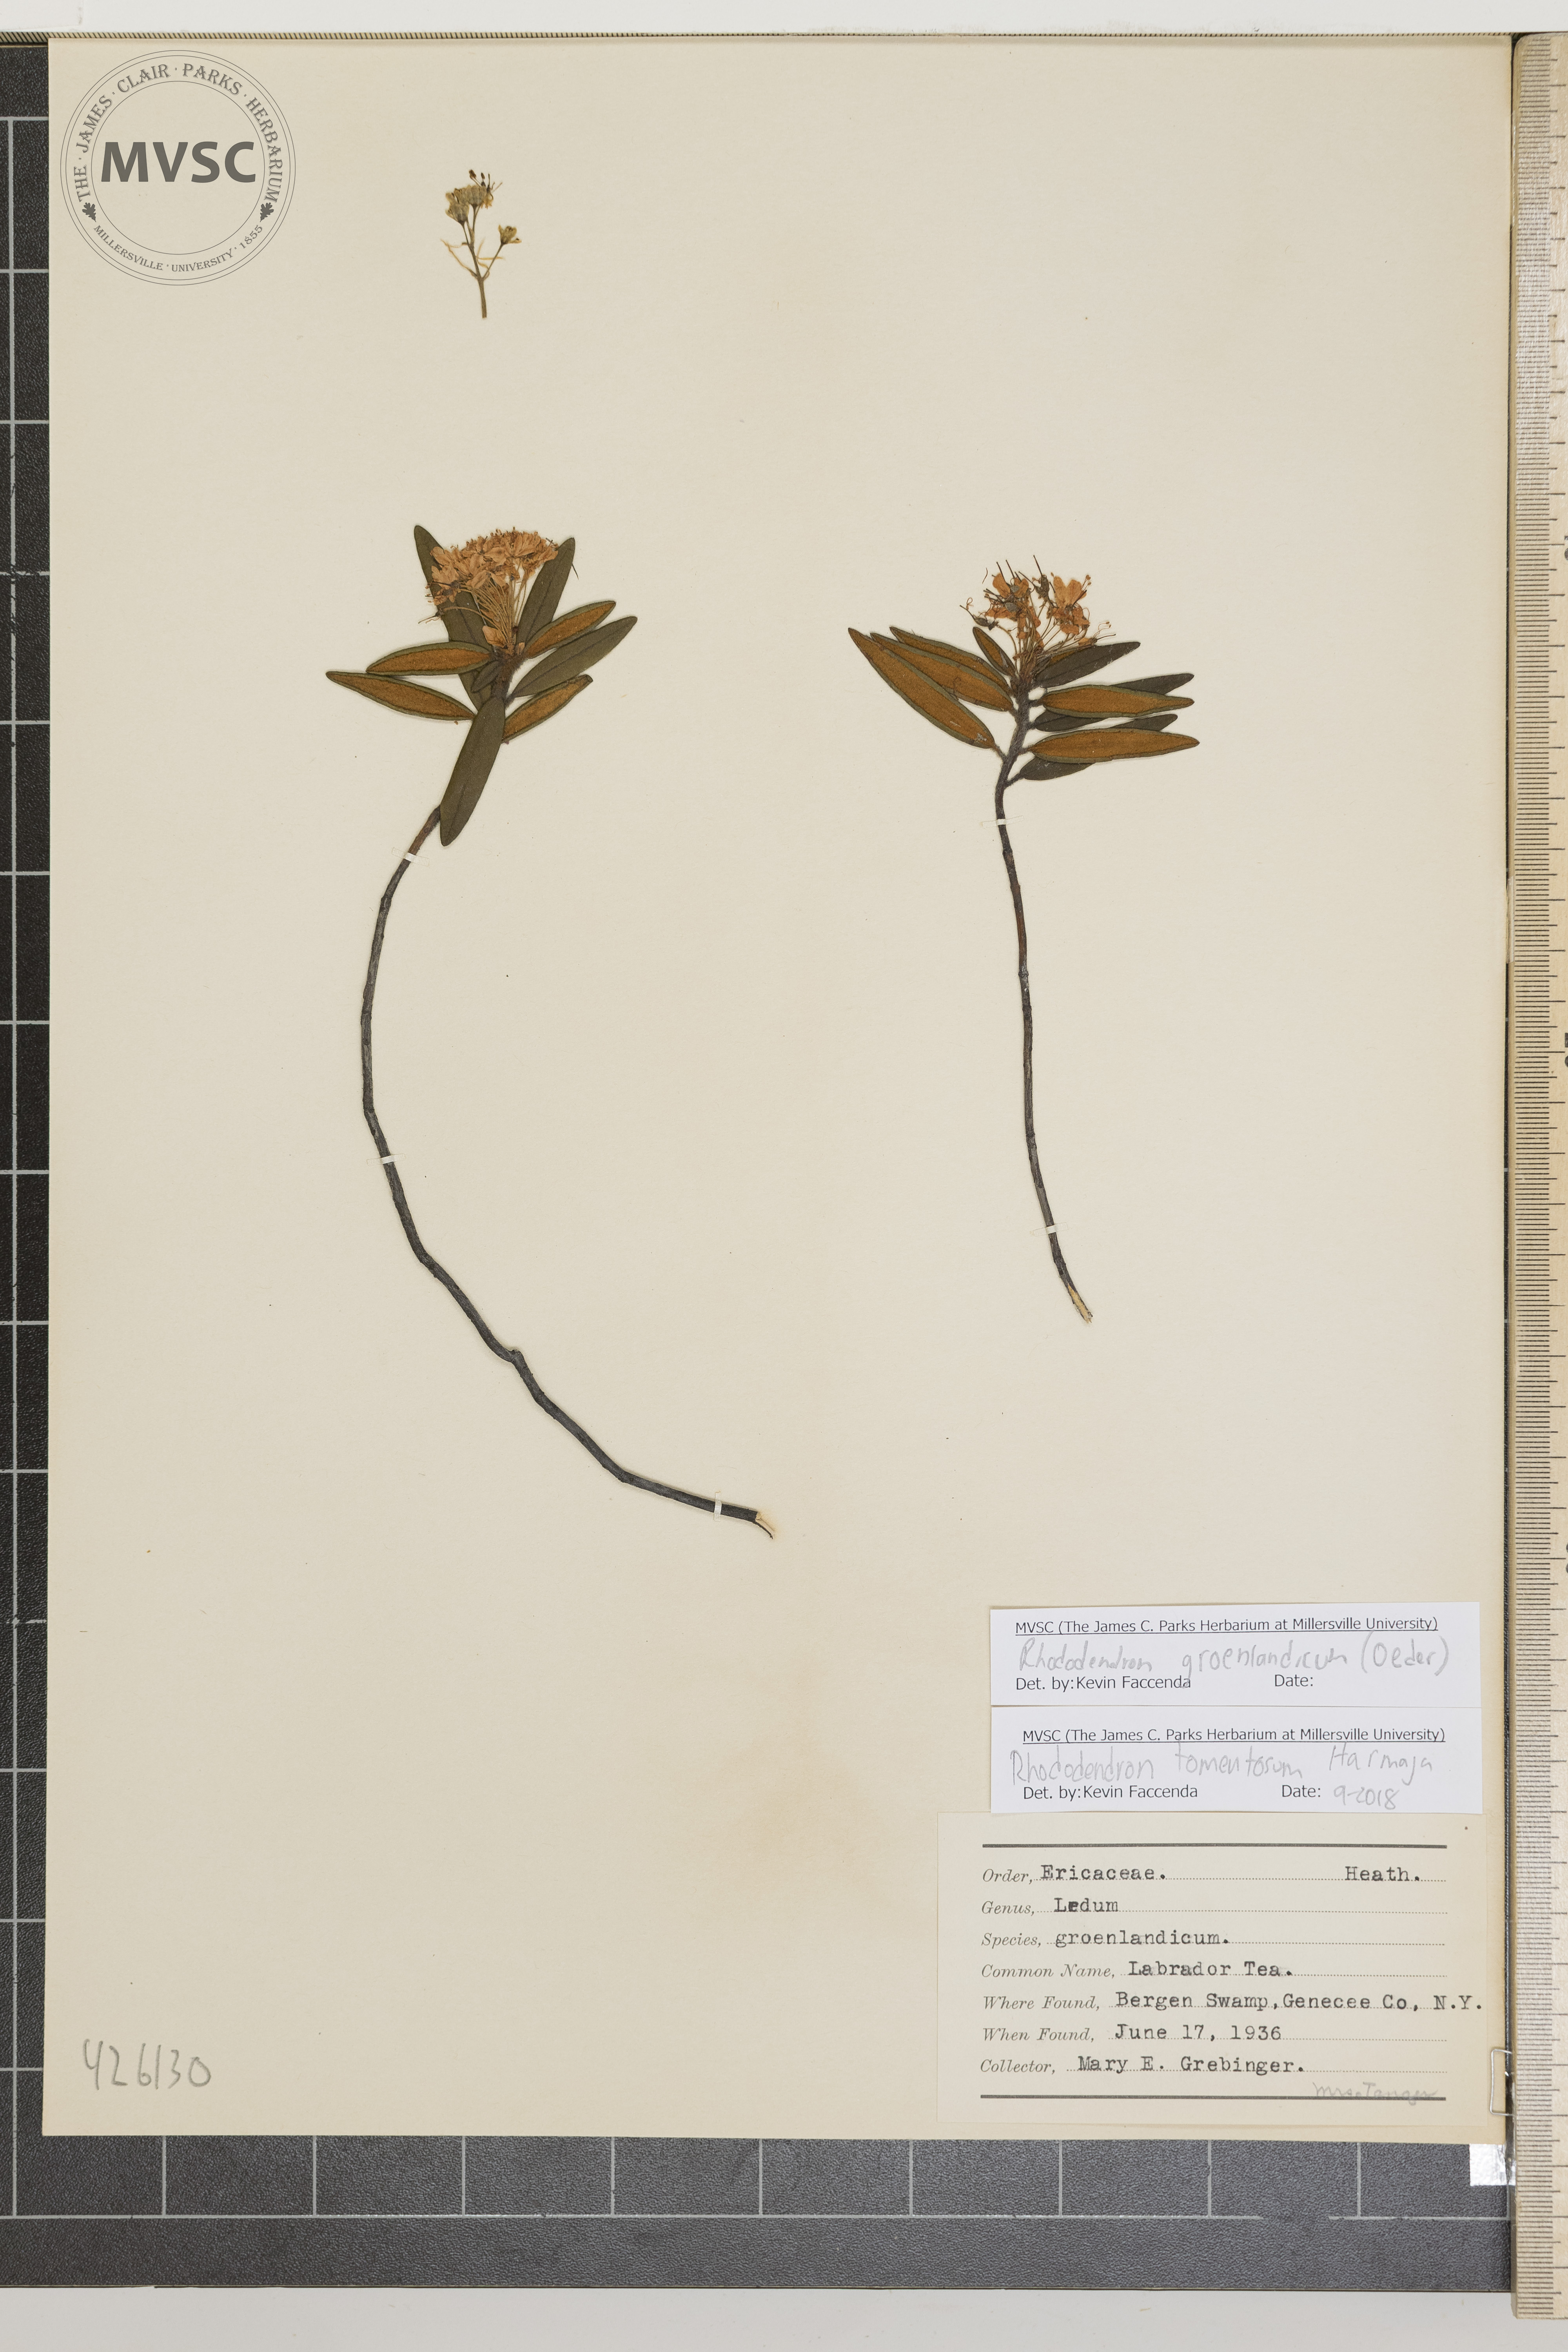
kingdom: Plantae
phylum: Tracheophyta
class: Magnoliopsida
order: Ericales
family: Ericaceae
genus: Rhododendron
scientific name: Rhododendron groenlandicum
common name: Labrador tea
